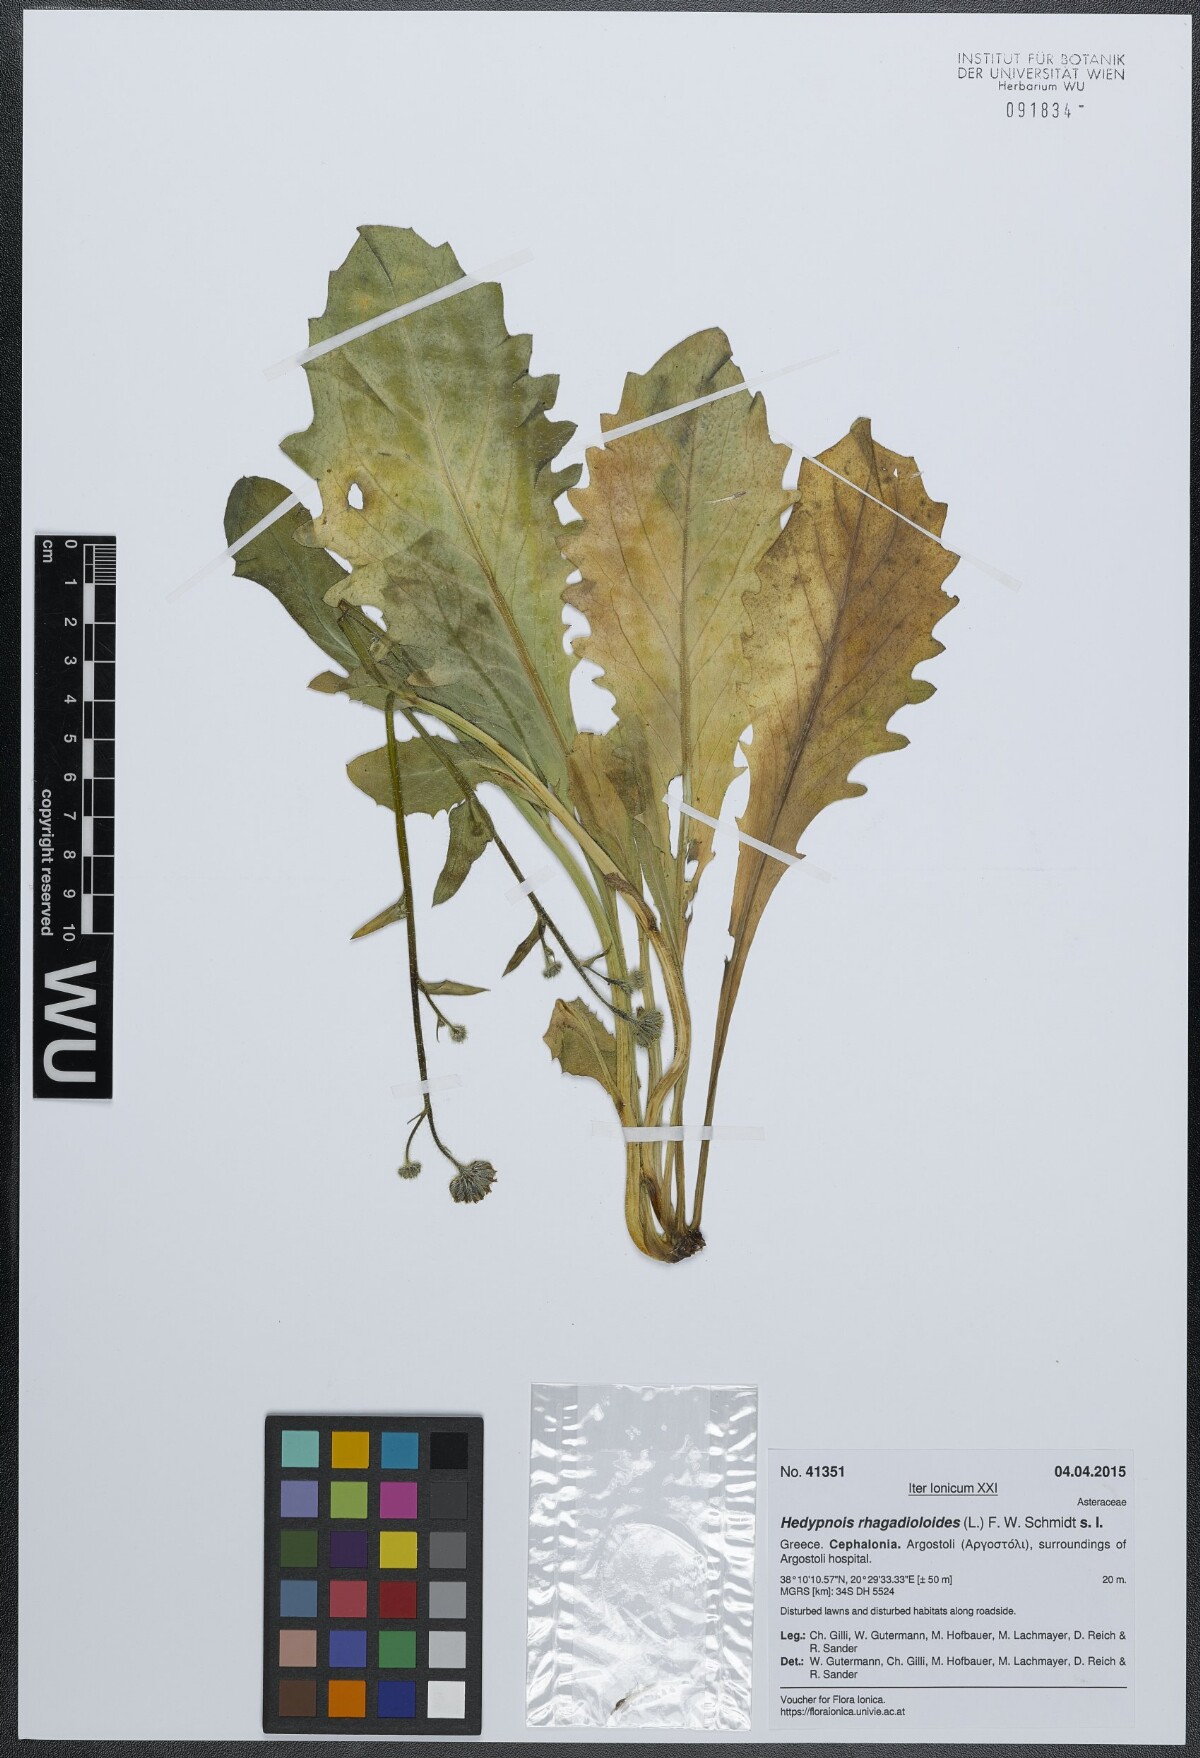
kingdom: Plantae
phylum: Tracheophyta
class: Magnoliopsida
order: Asterales
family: Asteraceae
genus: Hedypnois
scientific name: Hedypnois rhagadioloides
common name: Cretan weed
